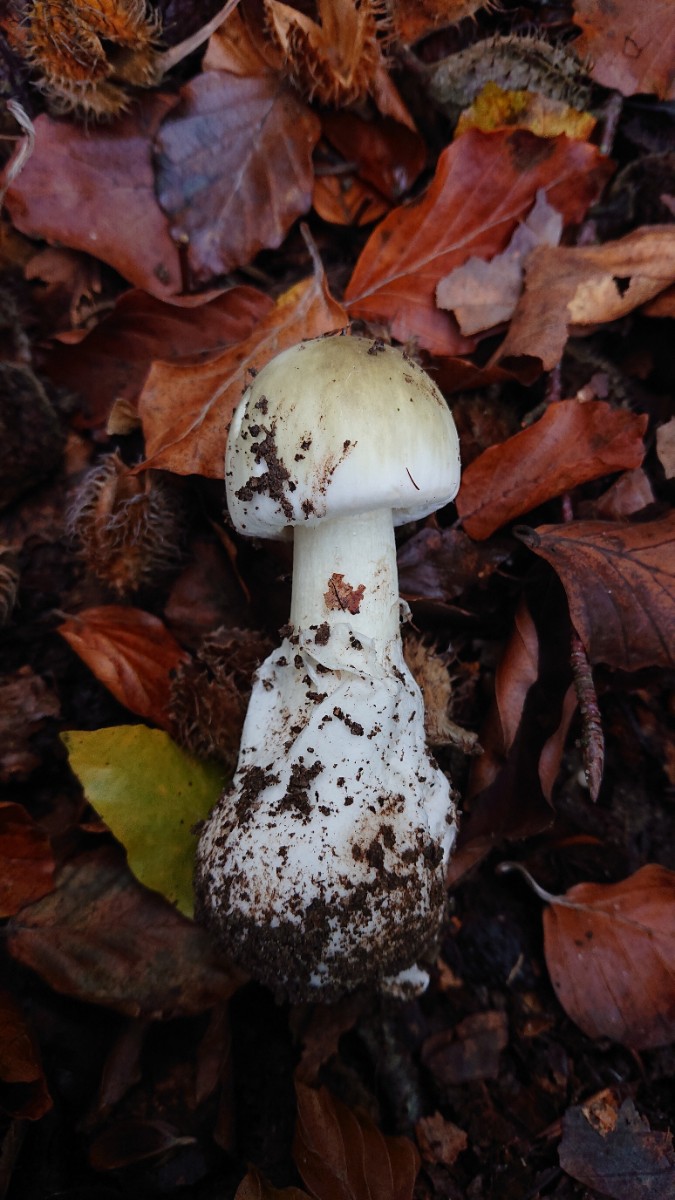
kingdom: Fungi
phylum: Basidiomycota
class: Agaricomycetes
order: Agaricales
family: Amanitaceae
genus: Amanita
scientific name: Amanita phalloides
